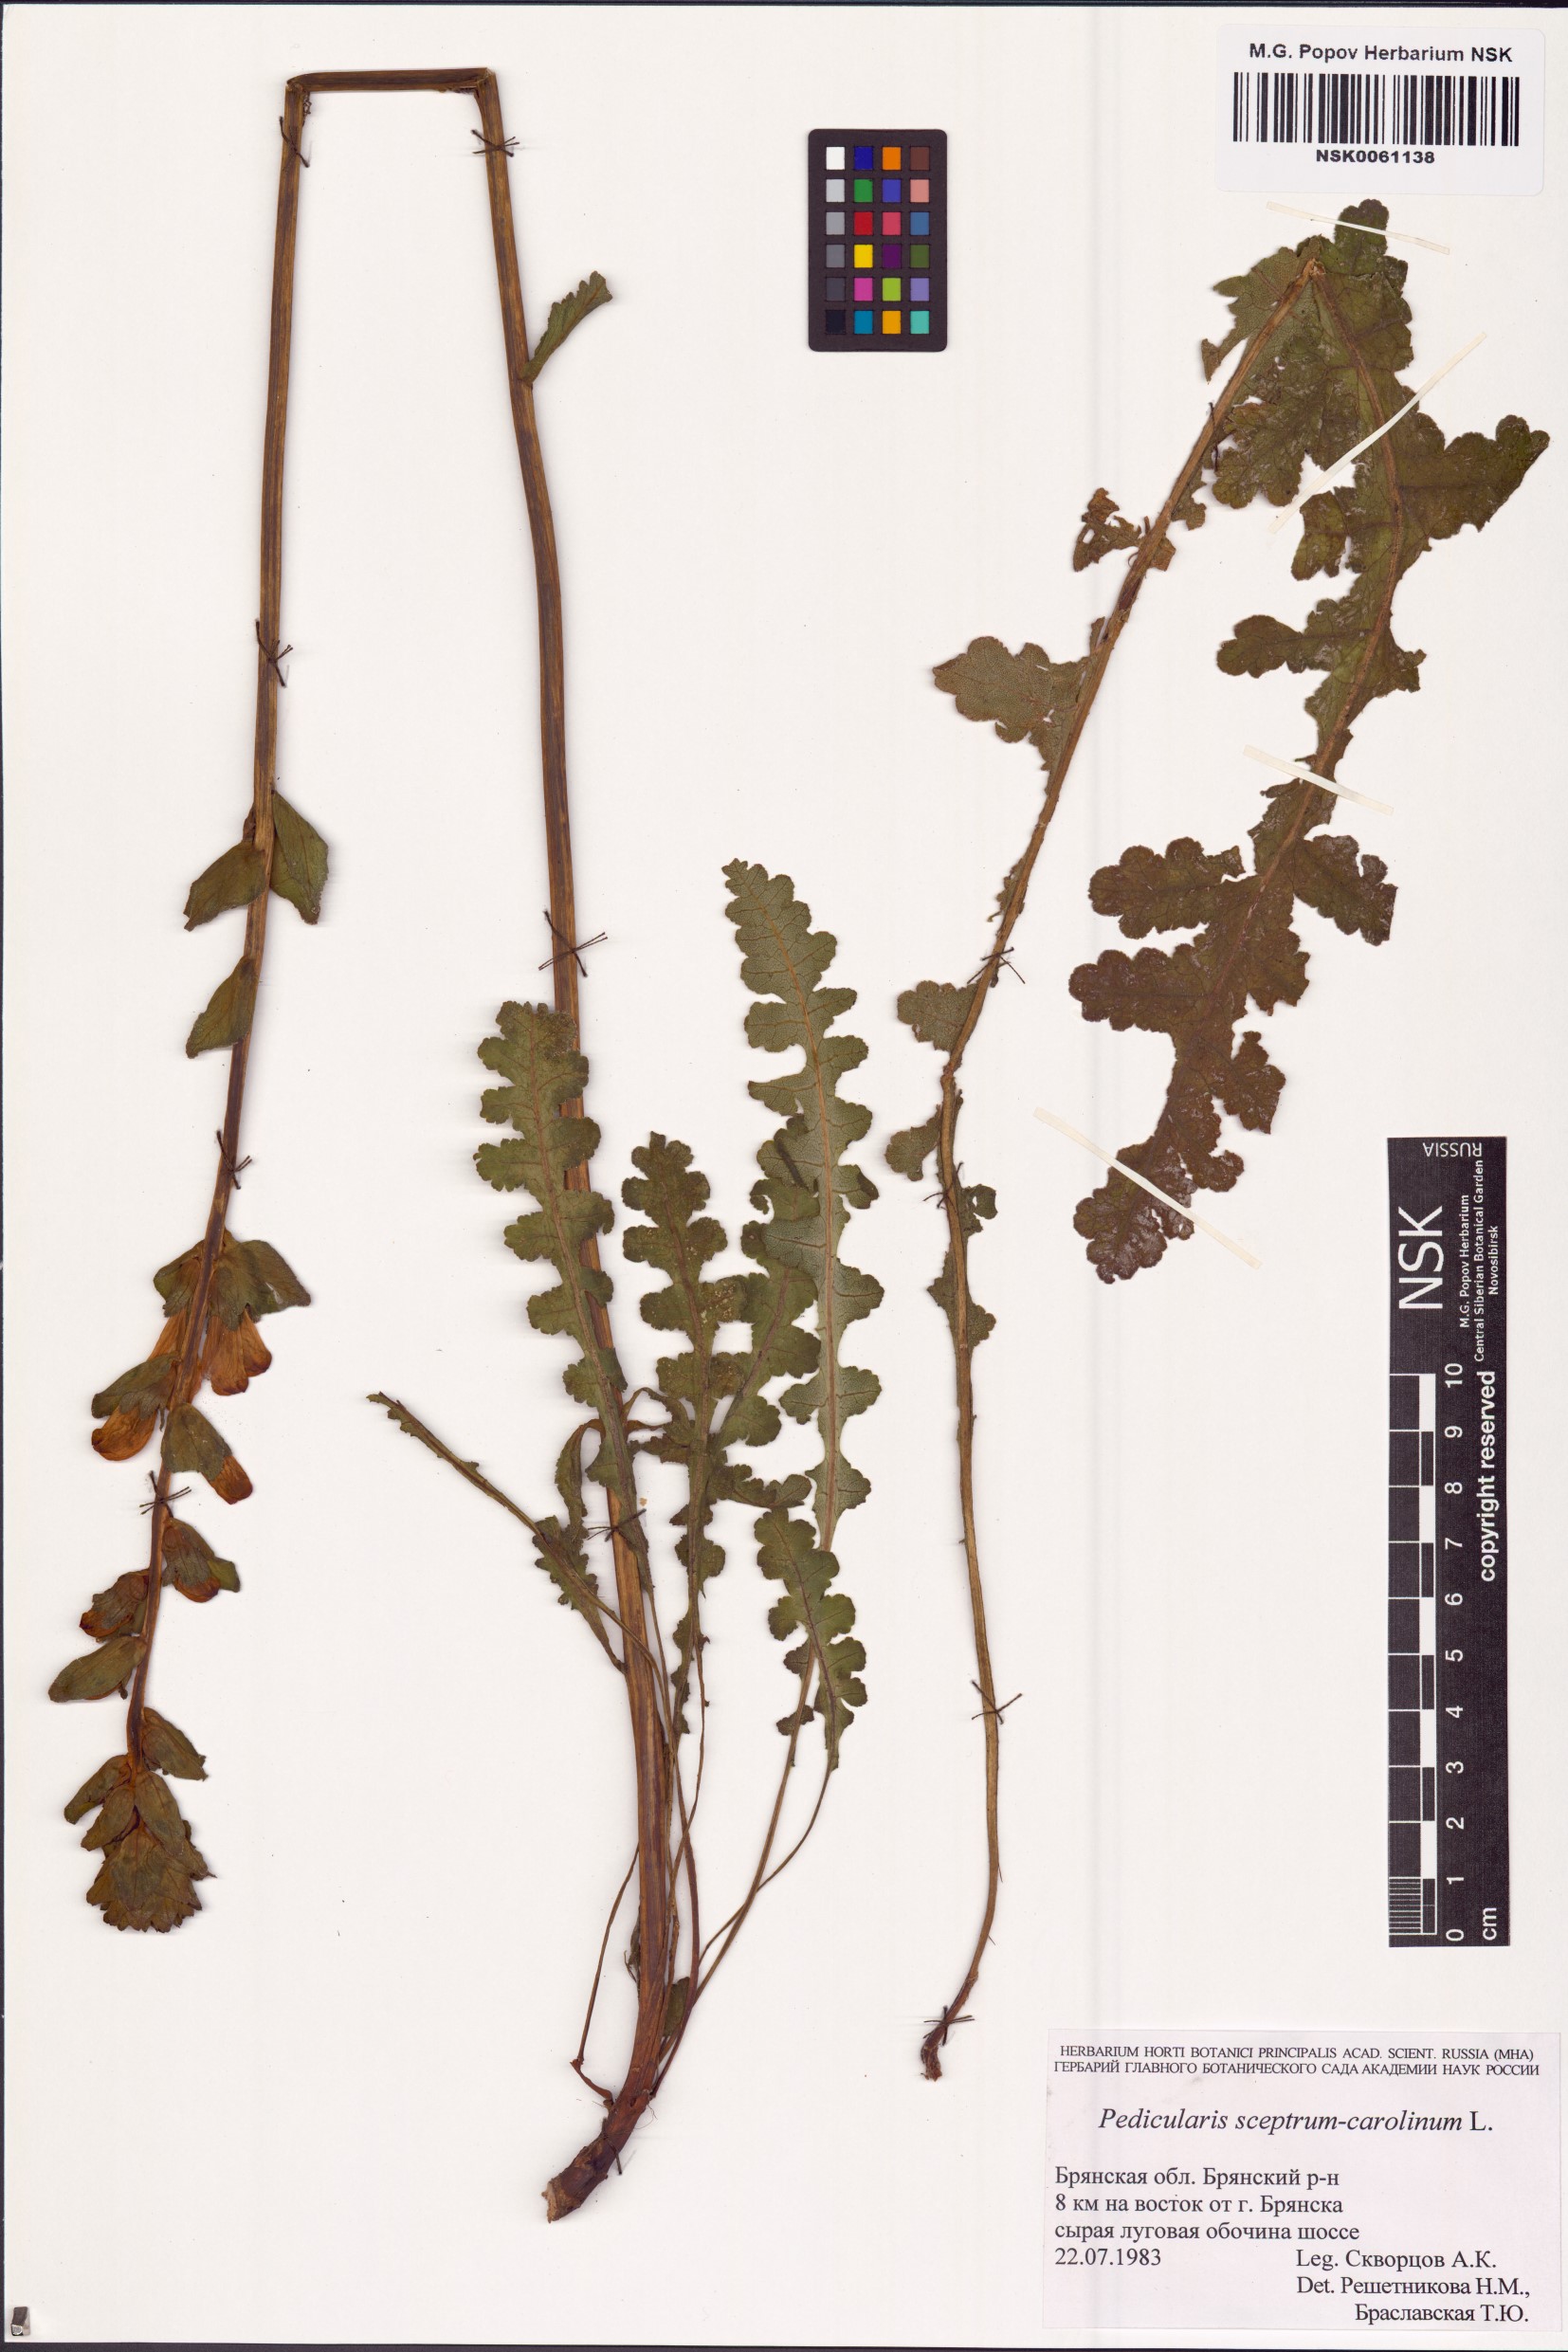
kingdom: Plantae
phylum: Tracheophyta
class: Magnoliopsida
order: Lamiales
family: Orobanchaceae
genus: Pedicularis
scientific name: Pedicularis sceptrum-carolinum
